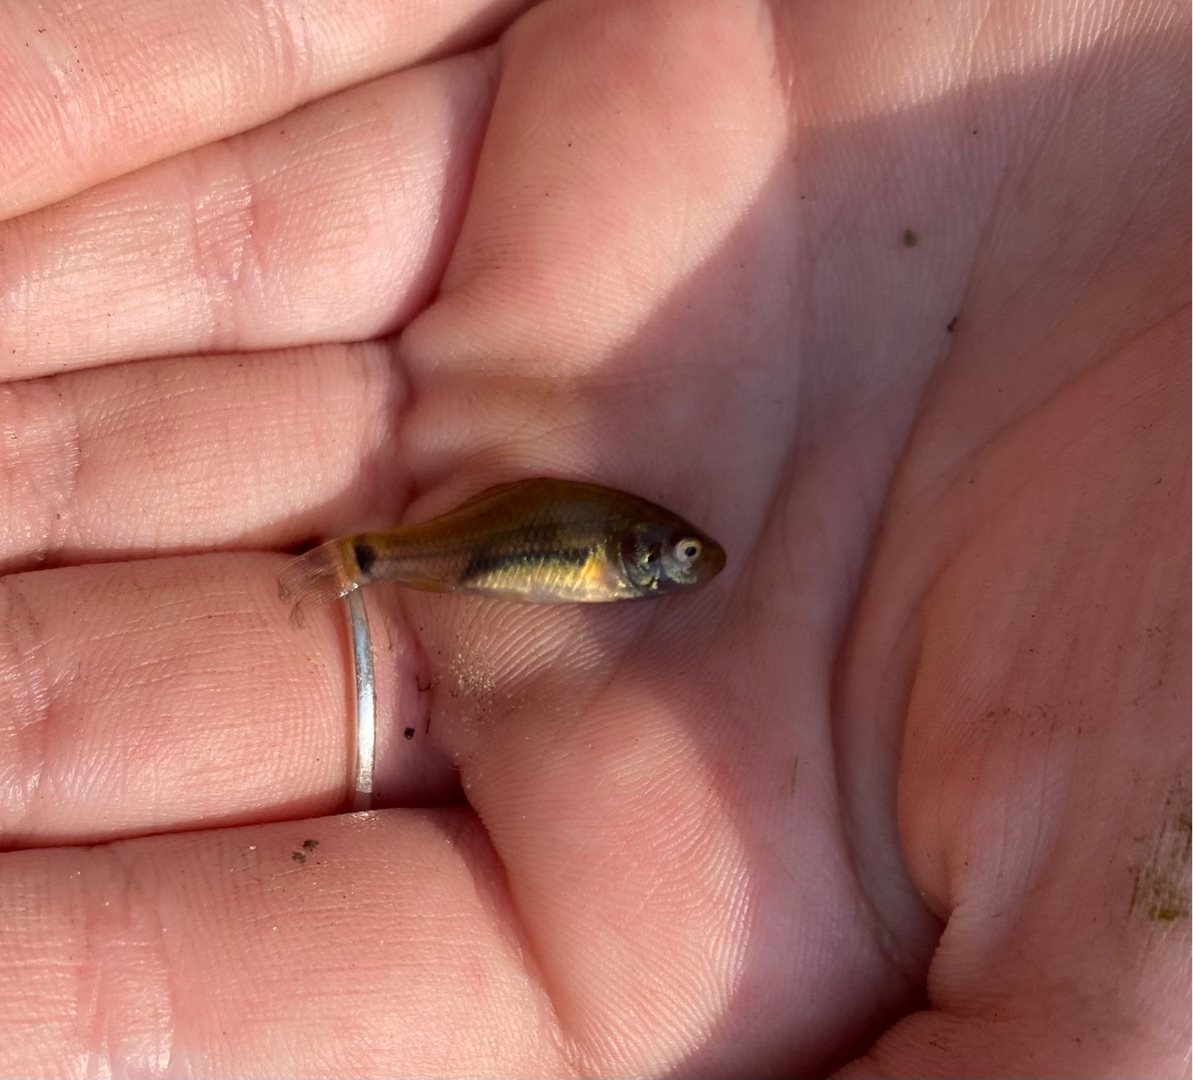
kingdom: Animalia
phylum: Chordata
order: Cypriniformes
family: Cyprinidae
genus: Carassius
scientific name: Carassius carassius
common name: Karusse
